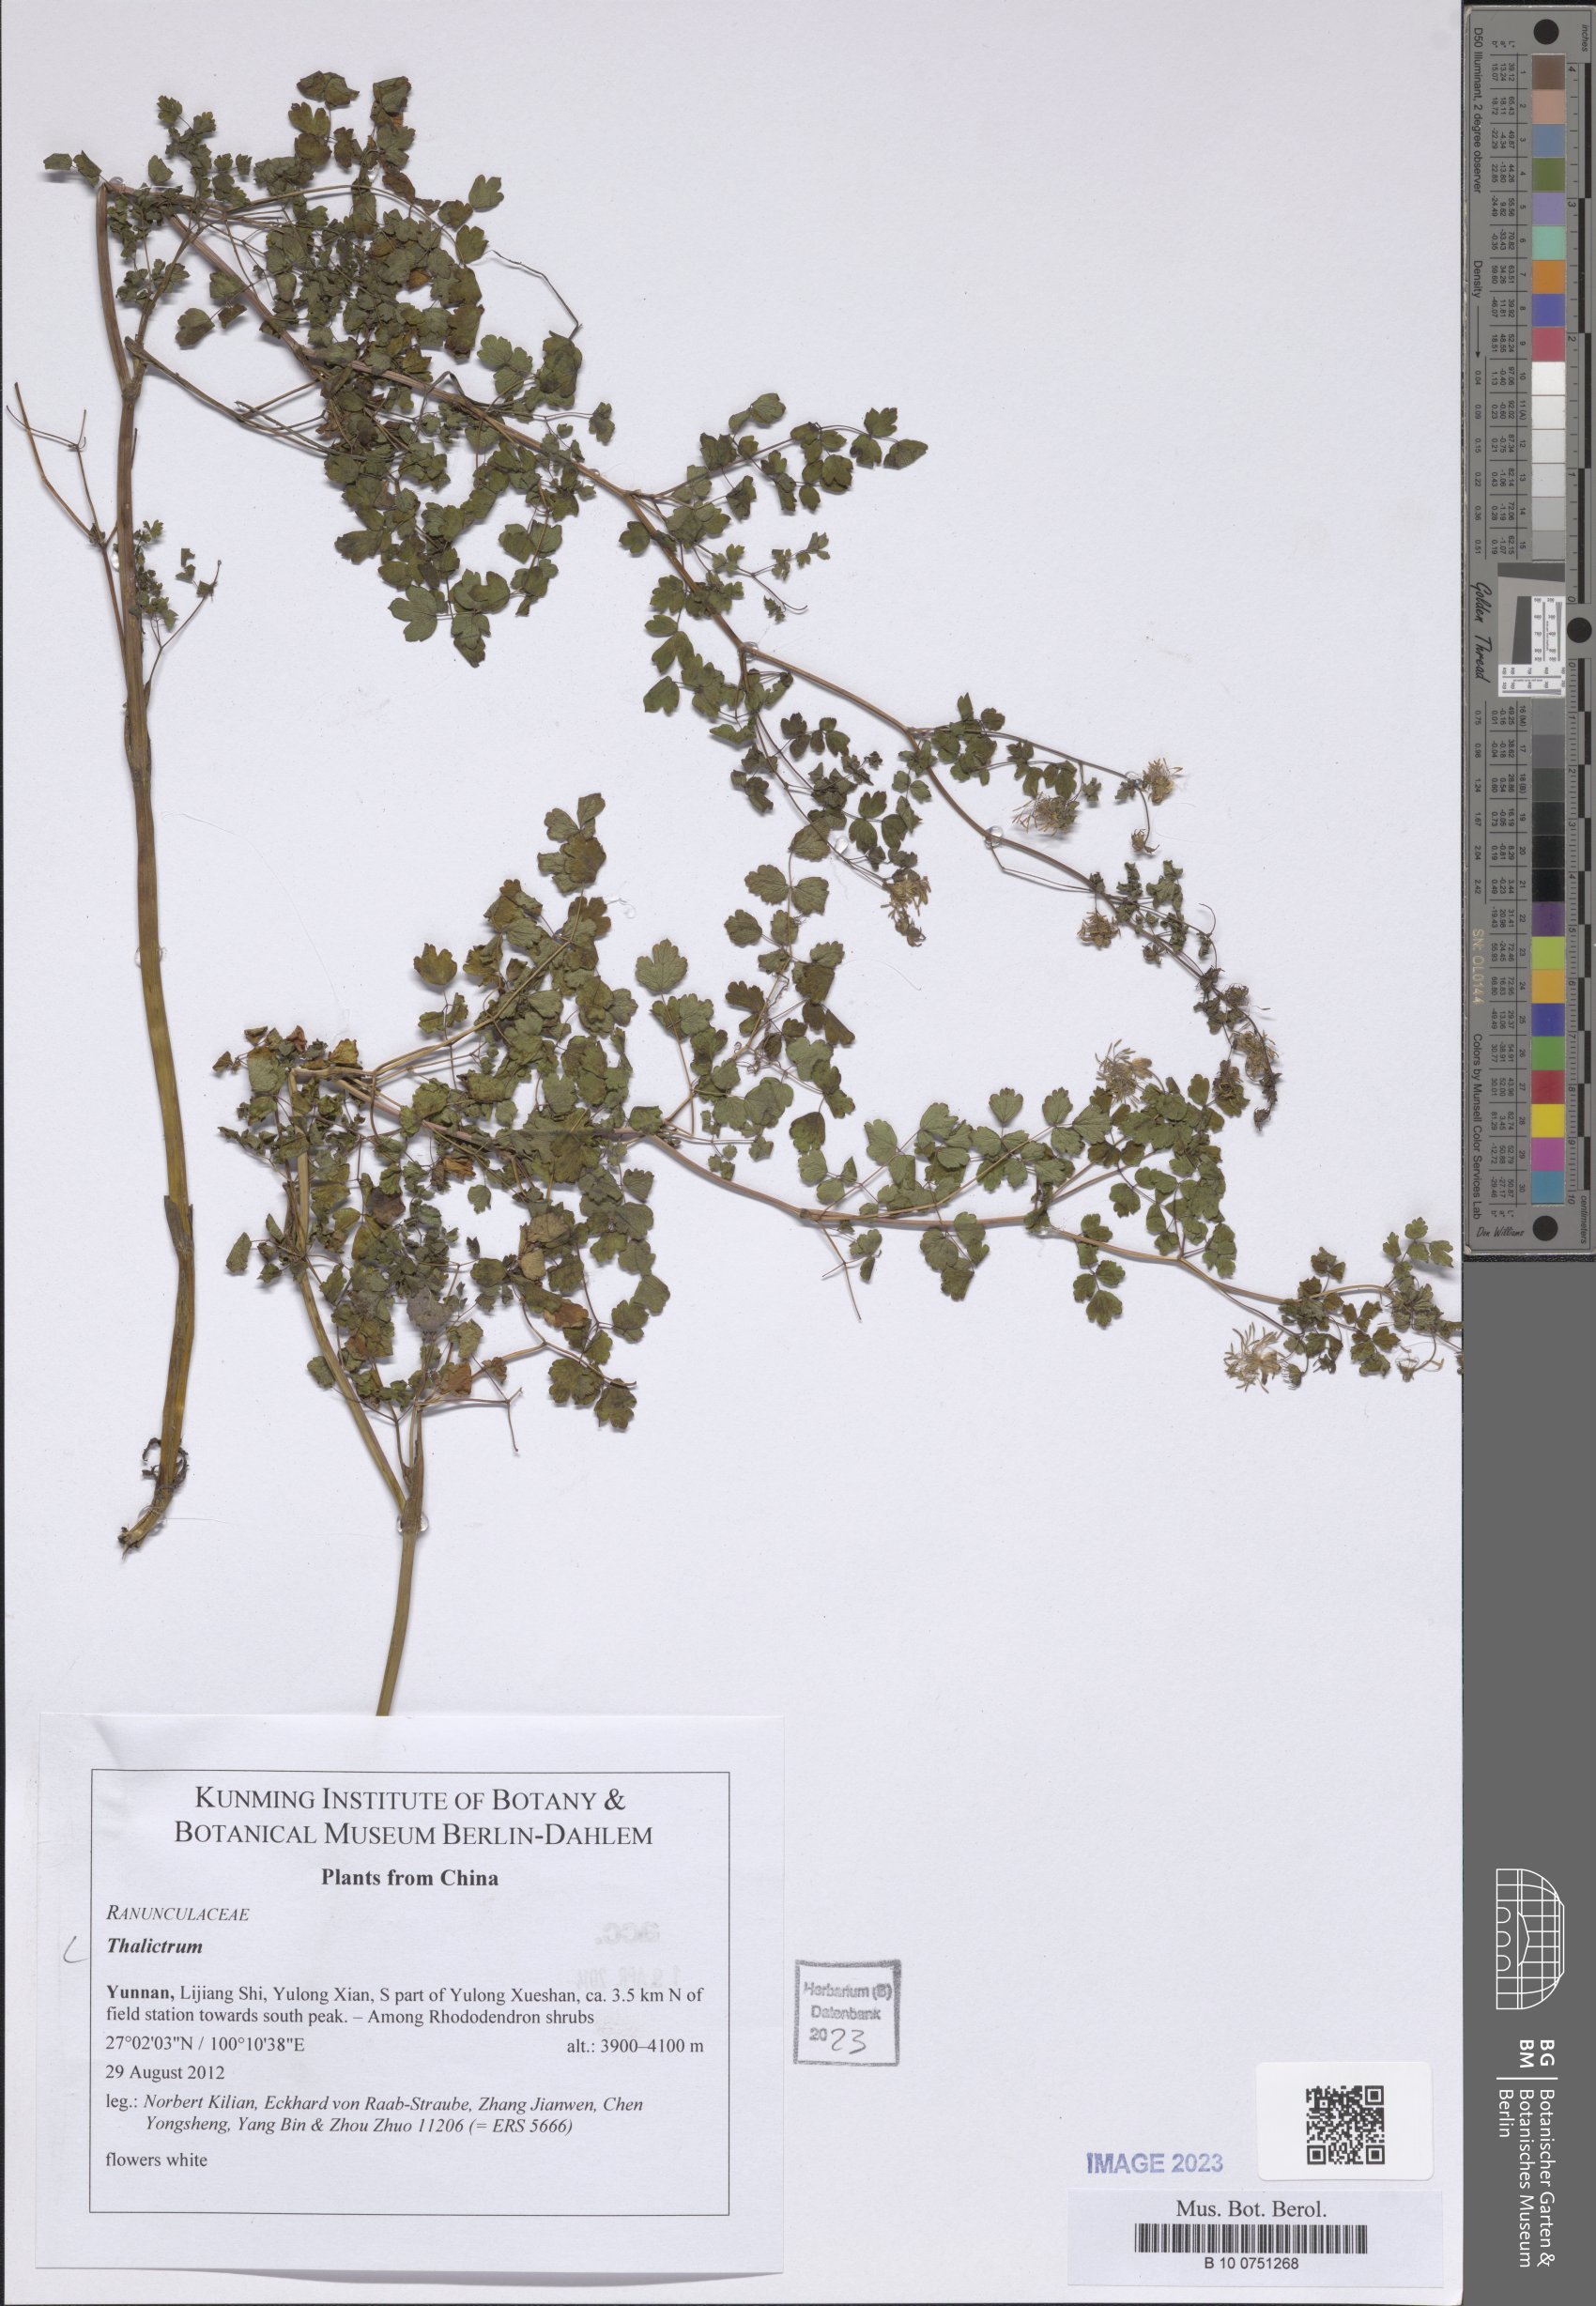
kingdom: Plantae
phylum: Tracheophyta
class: Magnoliopsida
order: Ranunculales
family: Ranunculaceae
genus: Thalictrum
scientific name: Thalictrum
